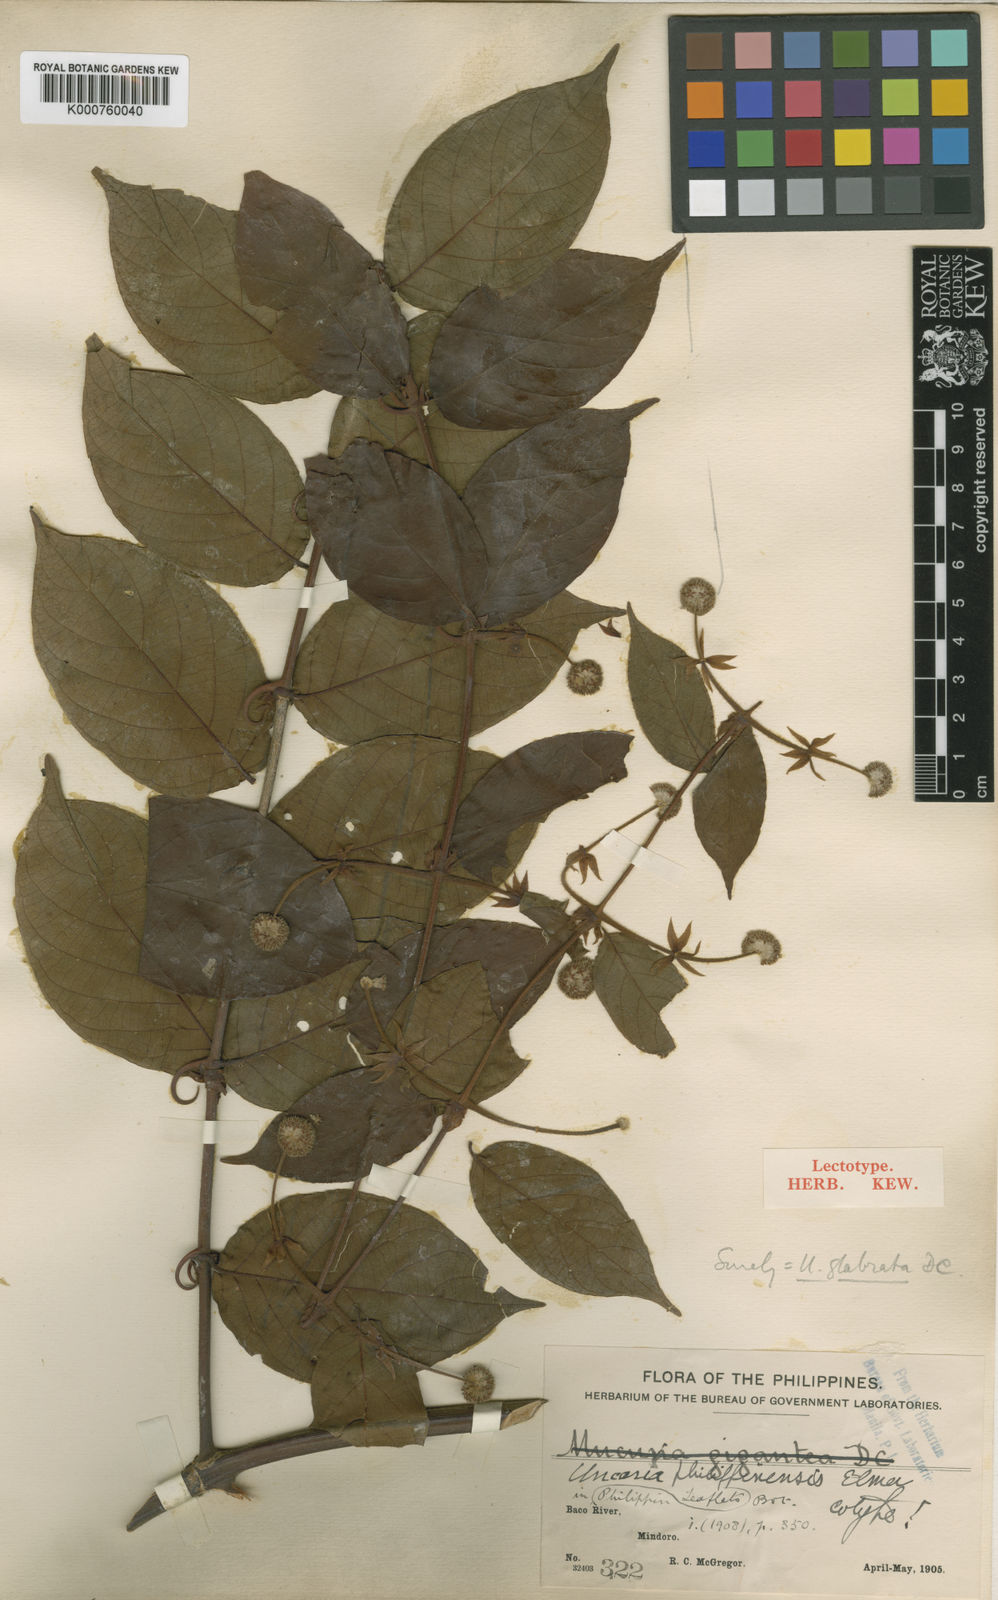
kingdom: Plantae
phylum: Tracheophyta
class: Magnoliopsida
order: Gentianales
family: Rubiaceae
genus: Uncaria
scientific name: Uncaria lanosa
